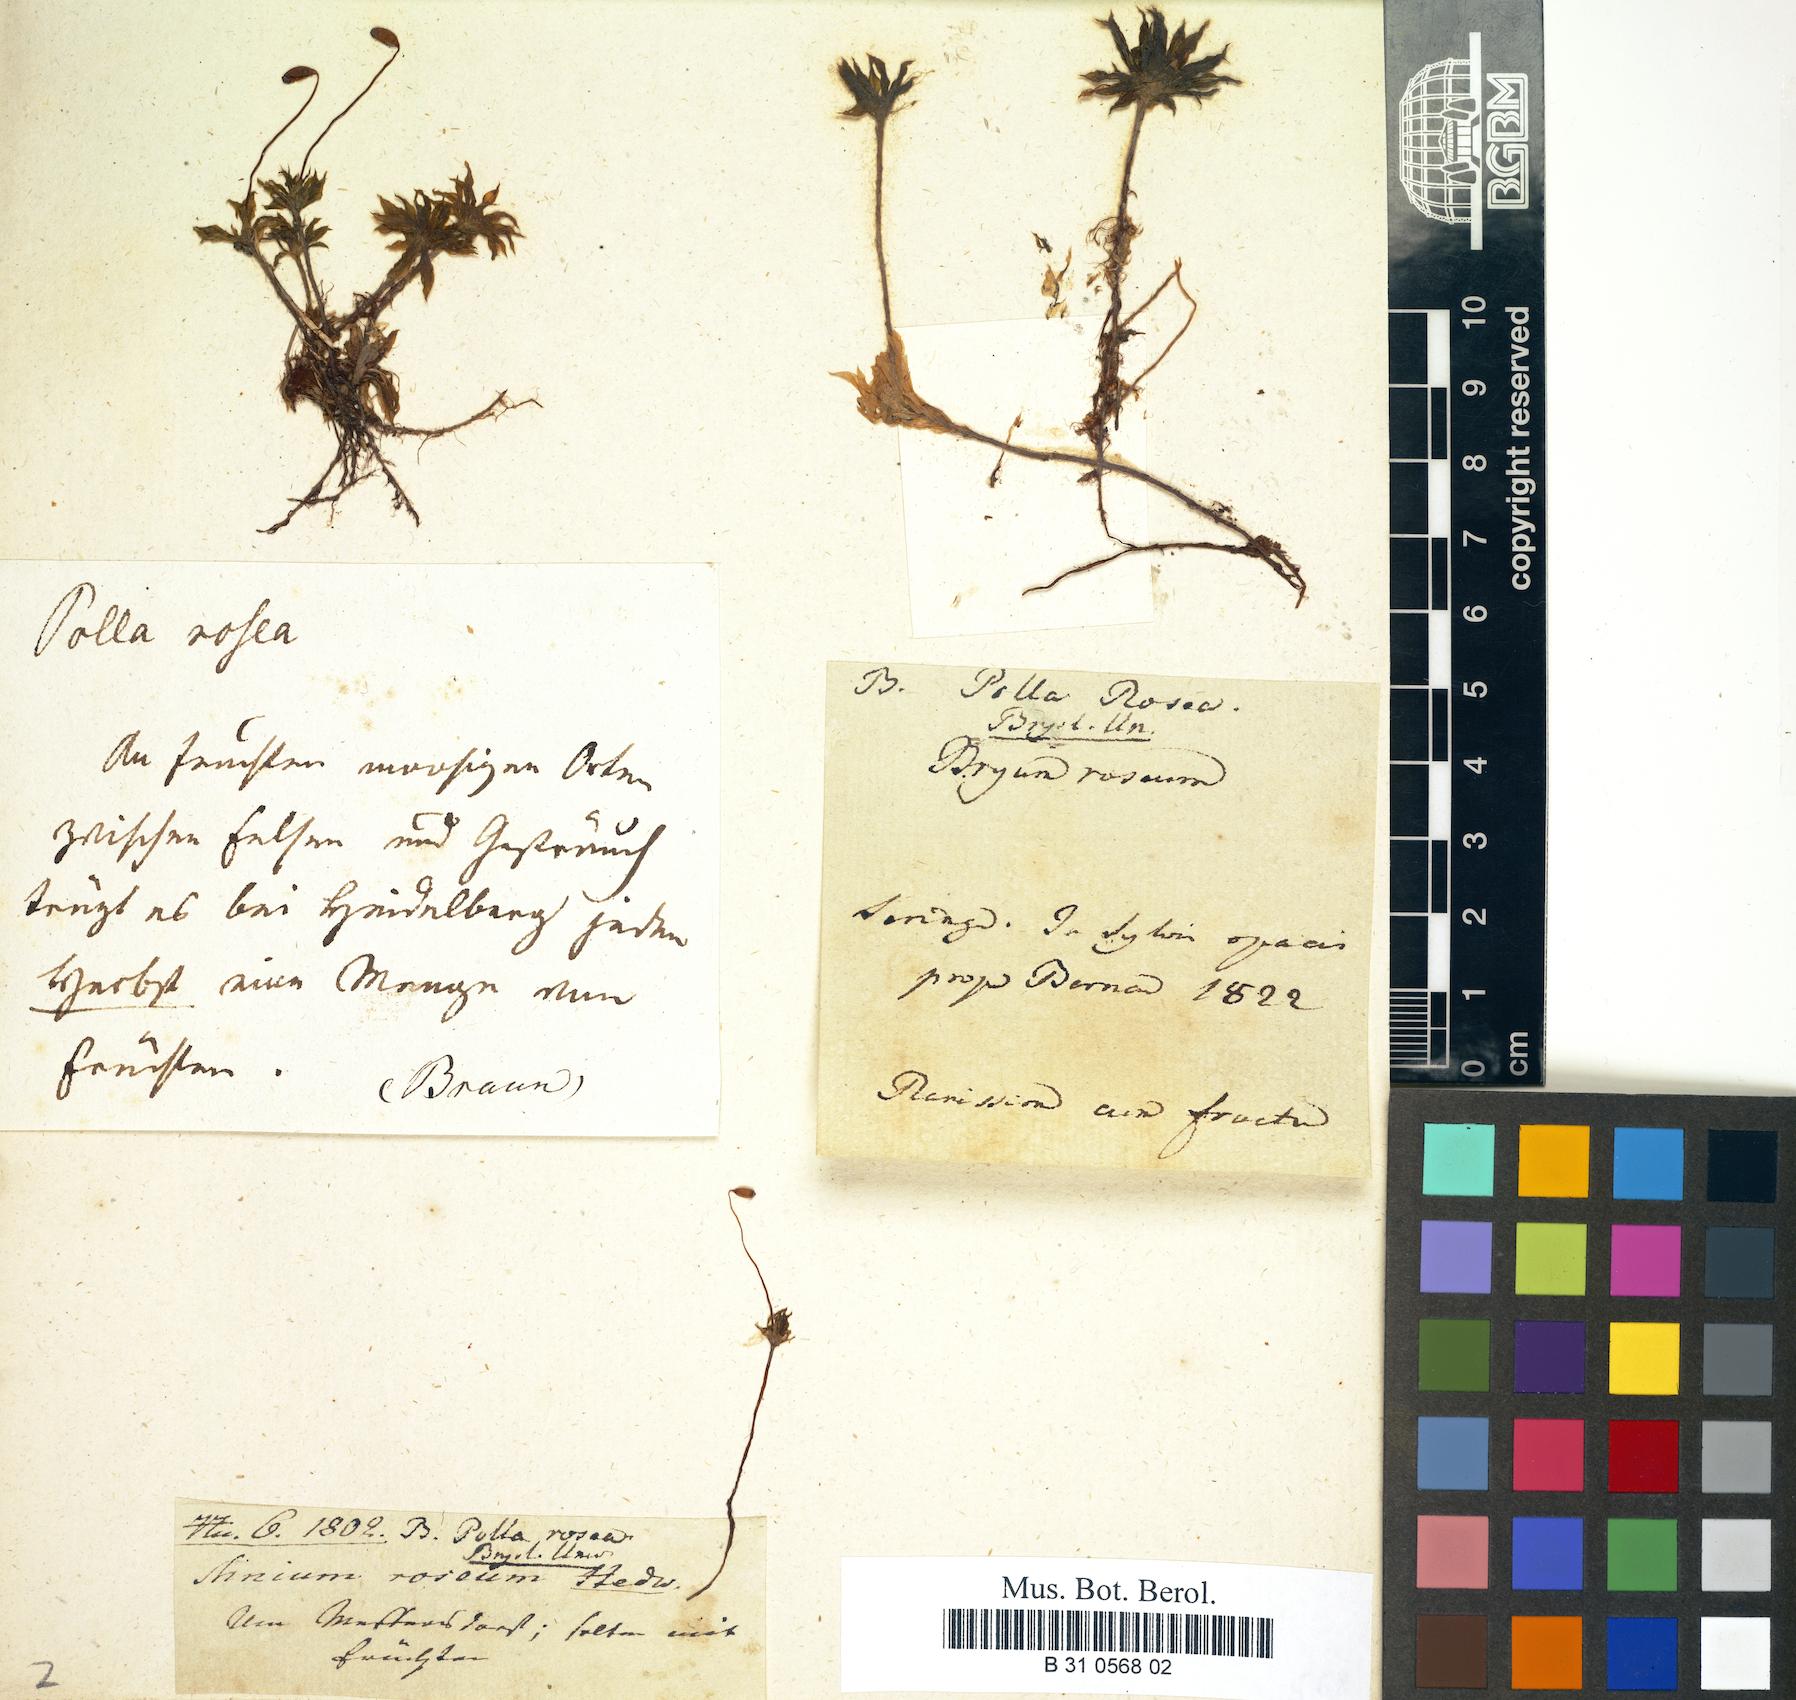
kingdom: Plantae
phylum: Bryophyta
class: Bryopsida
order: Bryales
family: Bryaceae
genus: Rhodobryum
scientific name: Rhodobryum roseum
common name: Rose-moss
